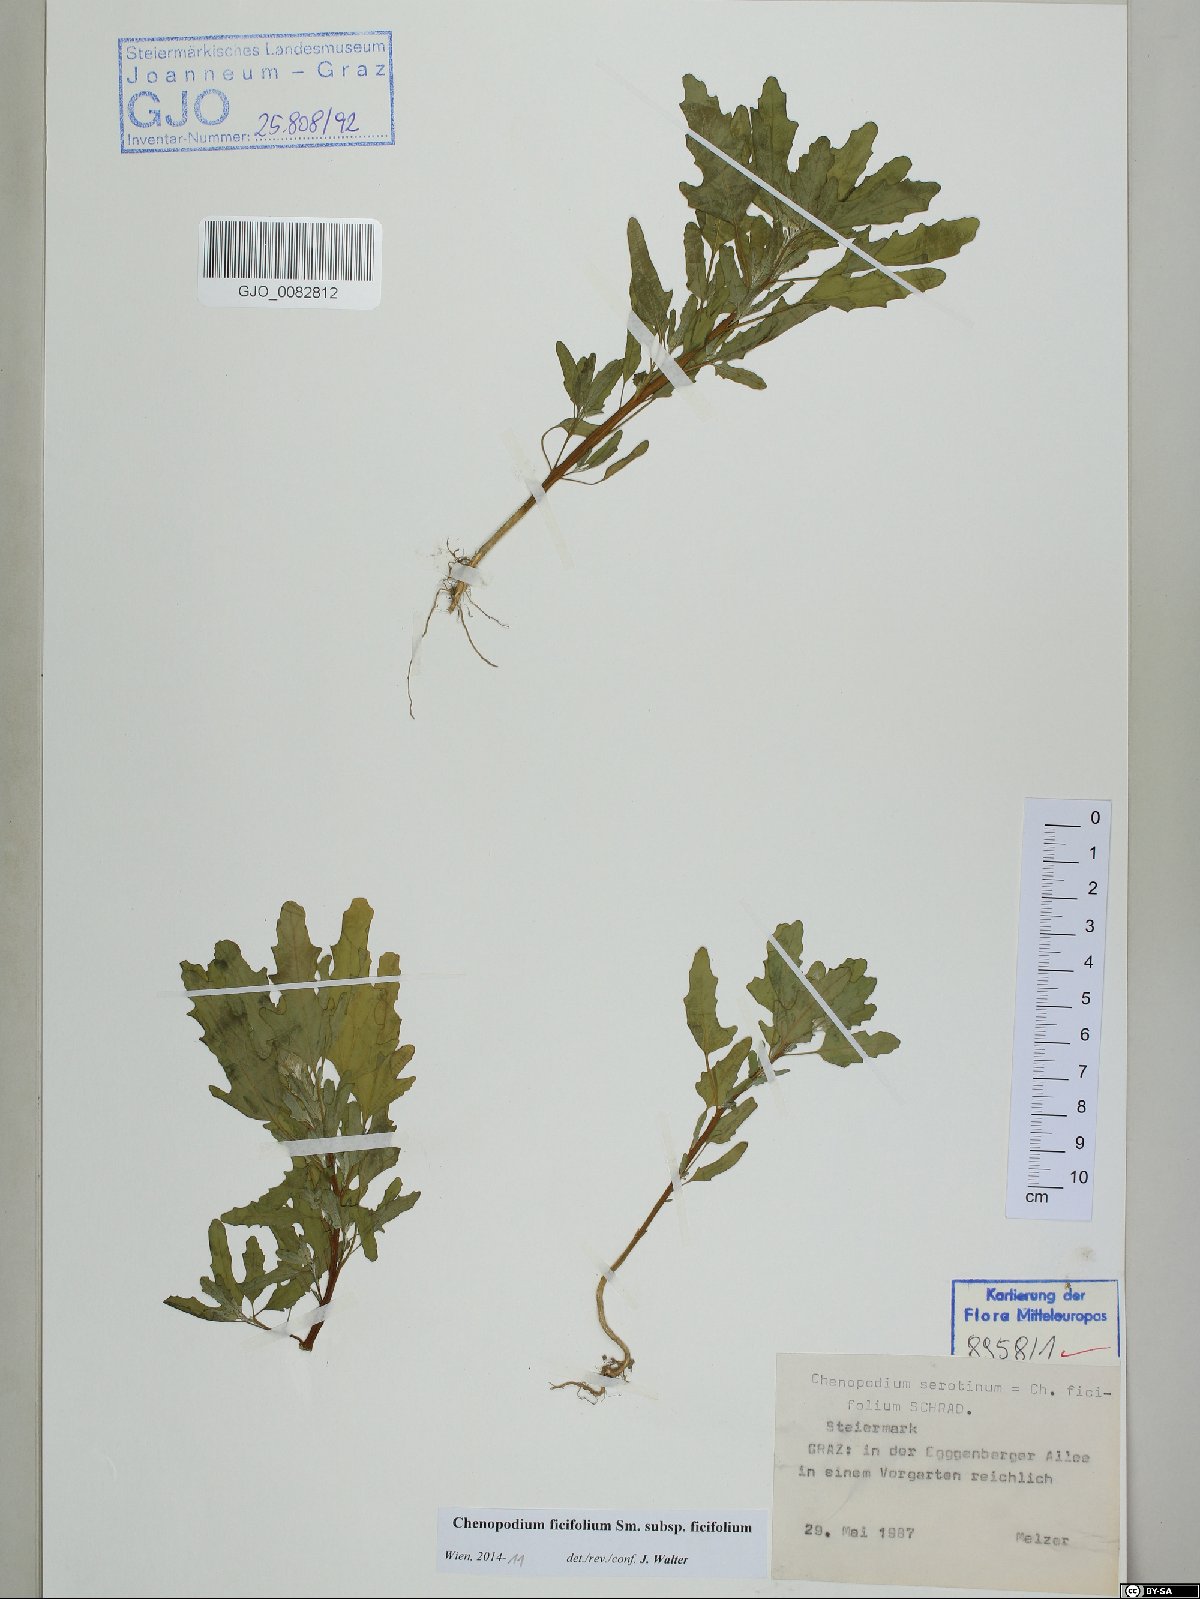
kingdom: Plantae
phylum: Tracheophyta
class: Magnoliopsida
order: Caryophyllales
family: Amaranthaceae
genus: Chenopodium
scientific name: Chenopodium ficifolium
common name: Fig-leaved goosefoot
